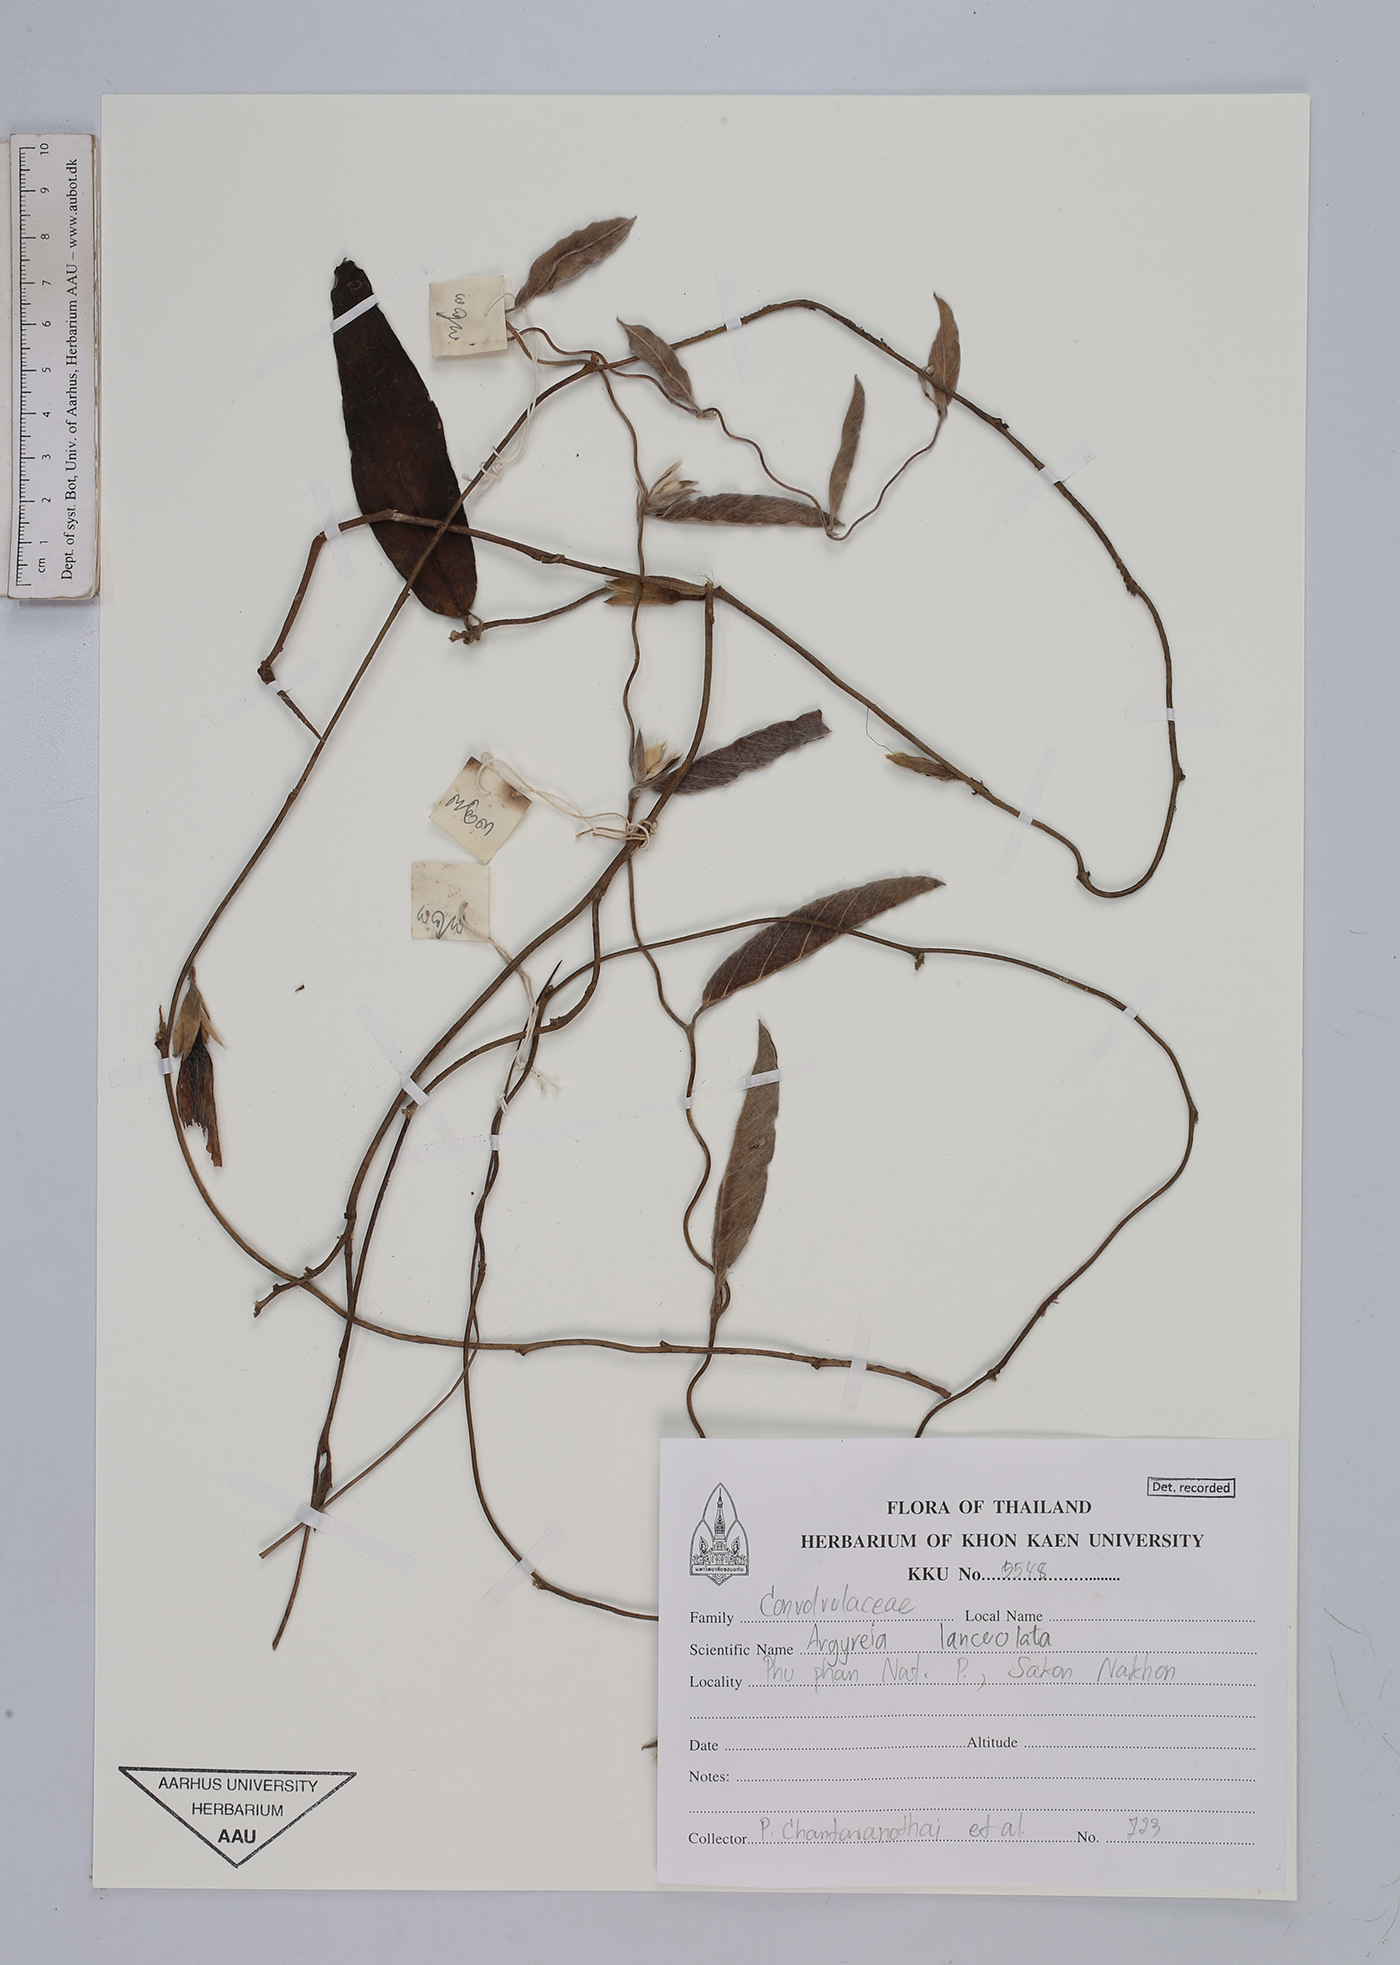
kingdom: Plantae
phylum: Tracheophyta
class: Magnoliopsida
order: Solanales
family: Convolvulaceae
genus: Argyreia
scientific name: Argyreia lanceolata
